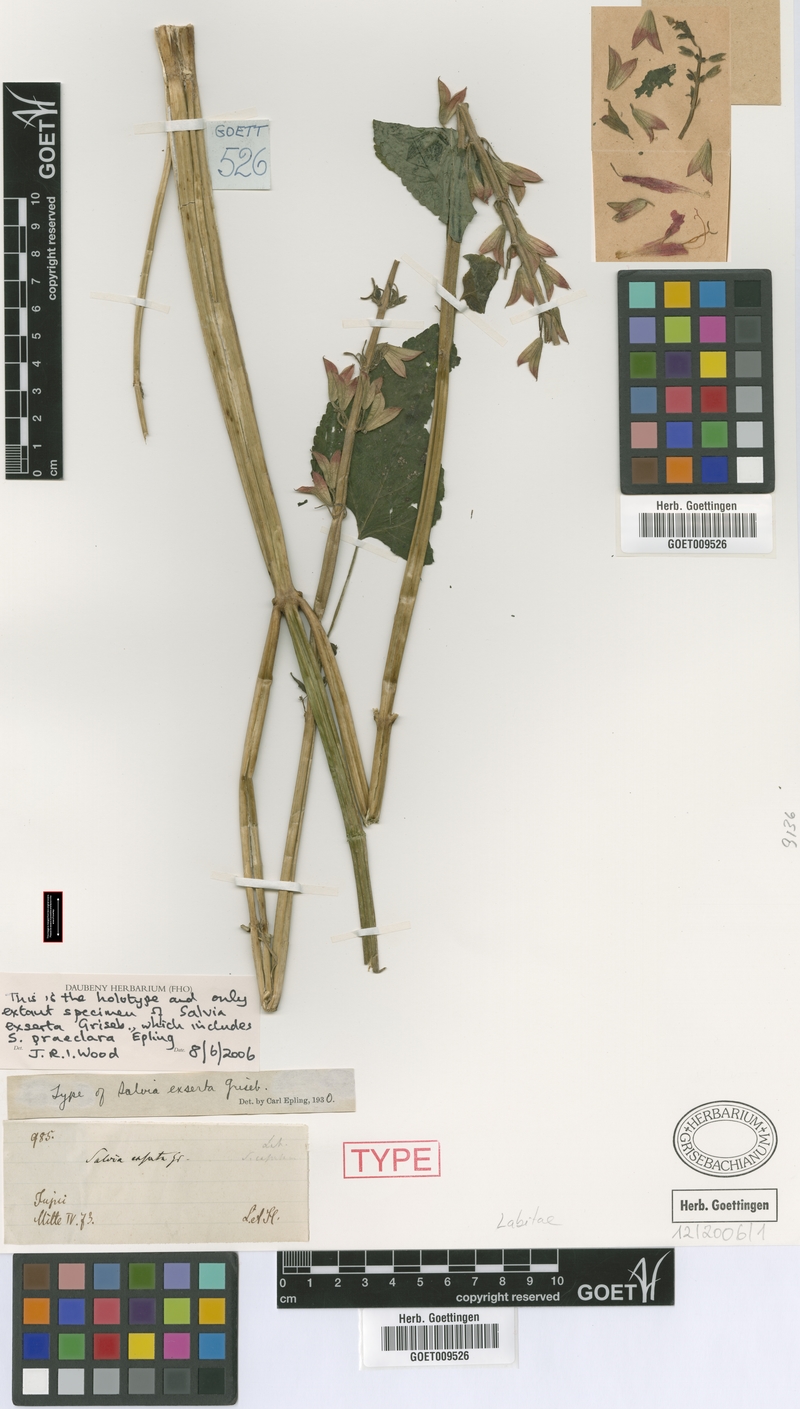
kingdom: Plantae
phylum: Tracheophyta
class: Magnoliopsida
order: Lamiales
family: Lamiaceae
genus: Salvia
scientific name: Salvia exserta
